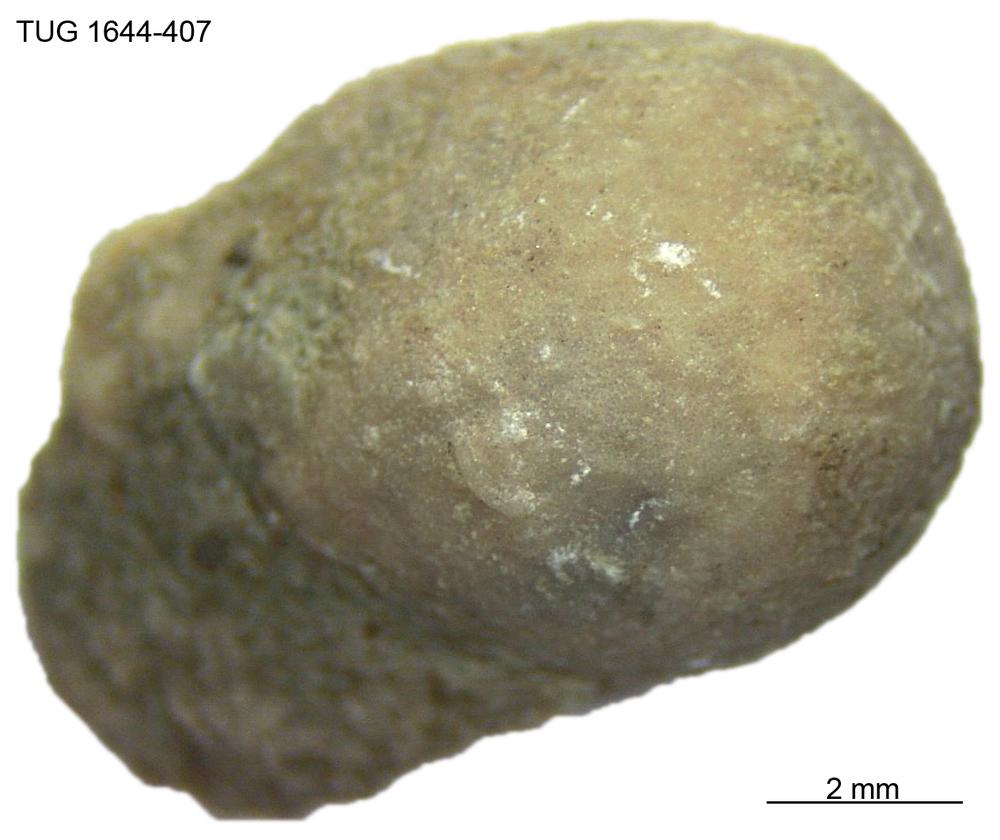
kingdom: Animalia
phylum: Porifera
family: Chaetetidae
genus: Solenopora
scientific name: Solenopora
